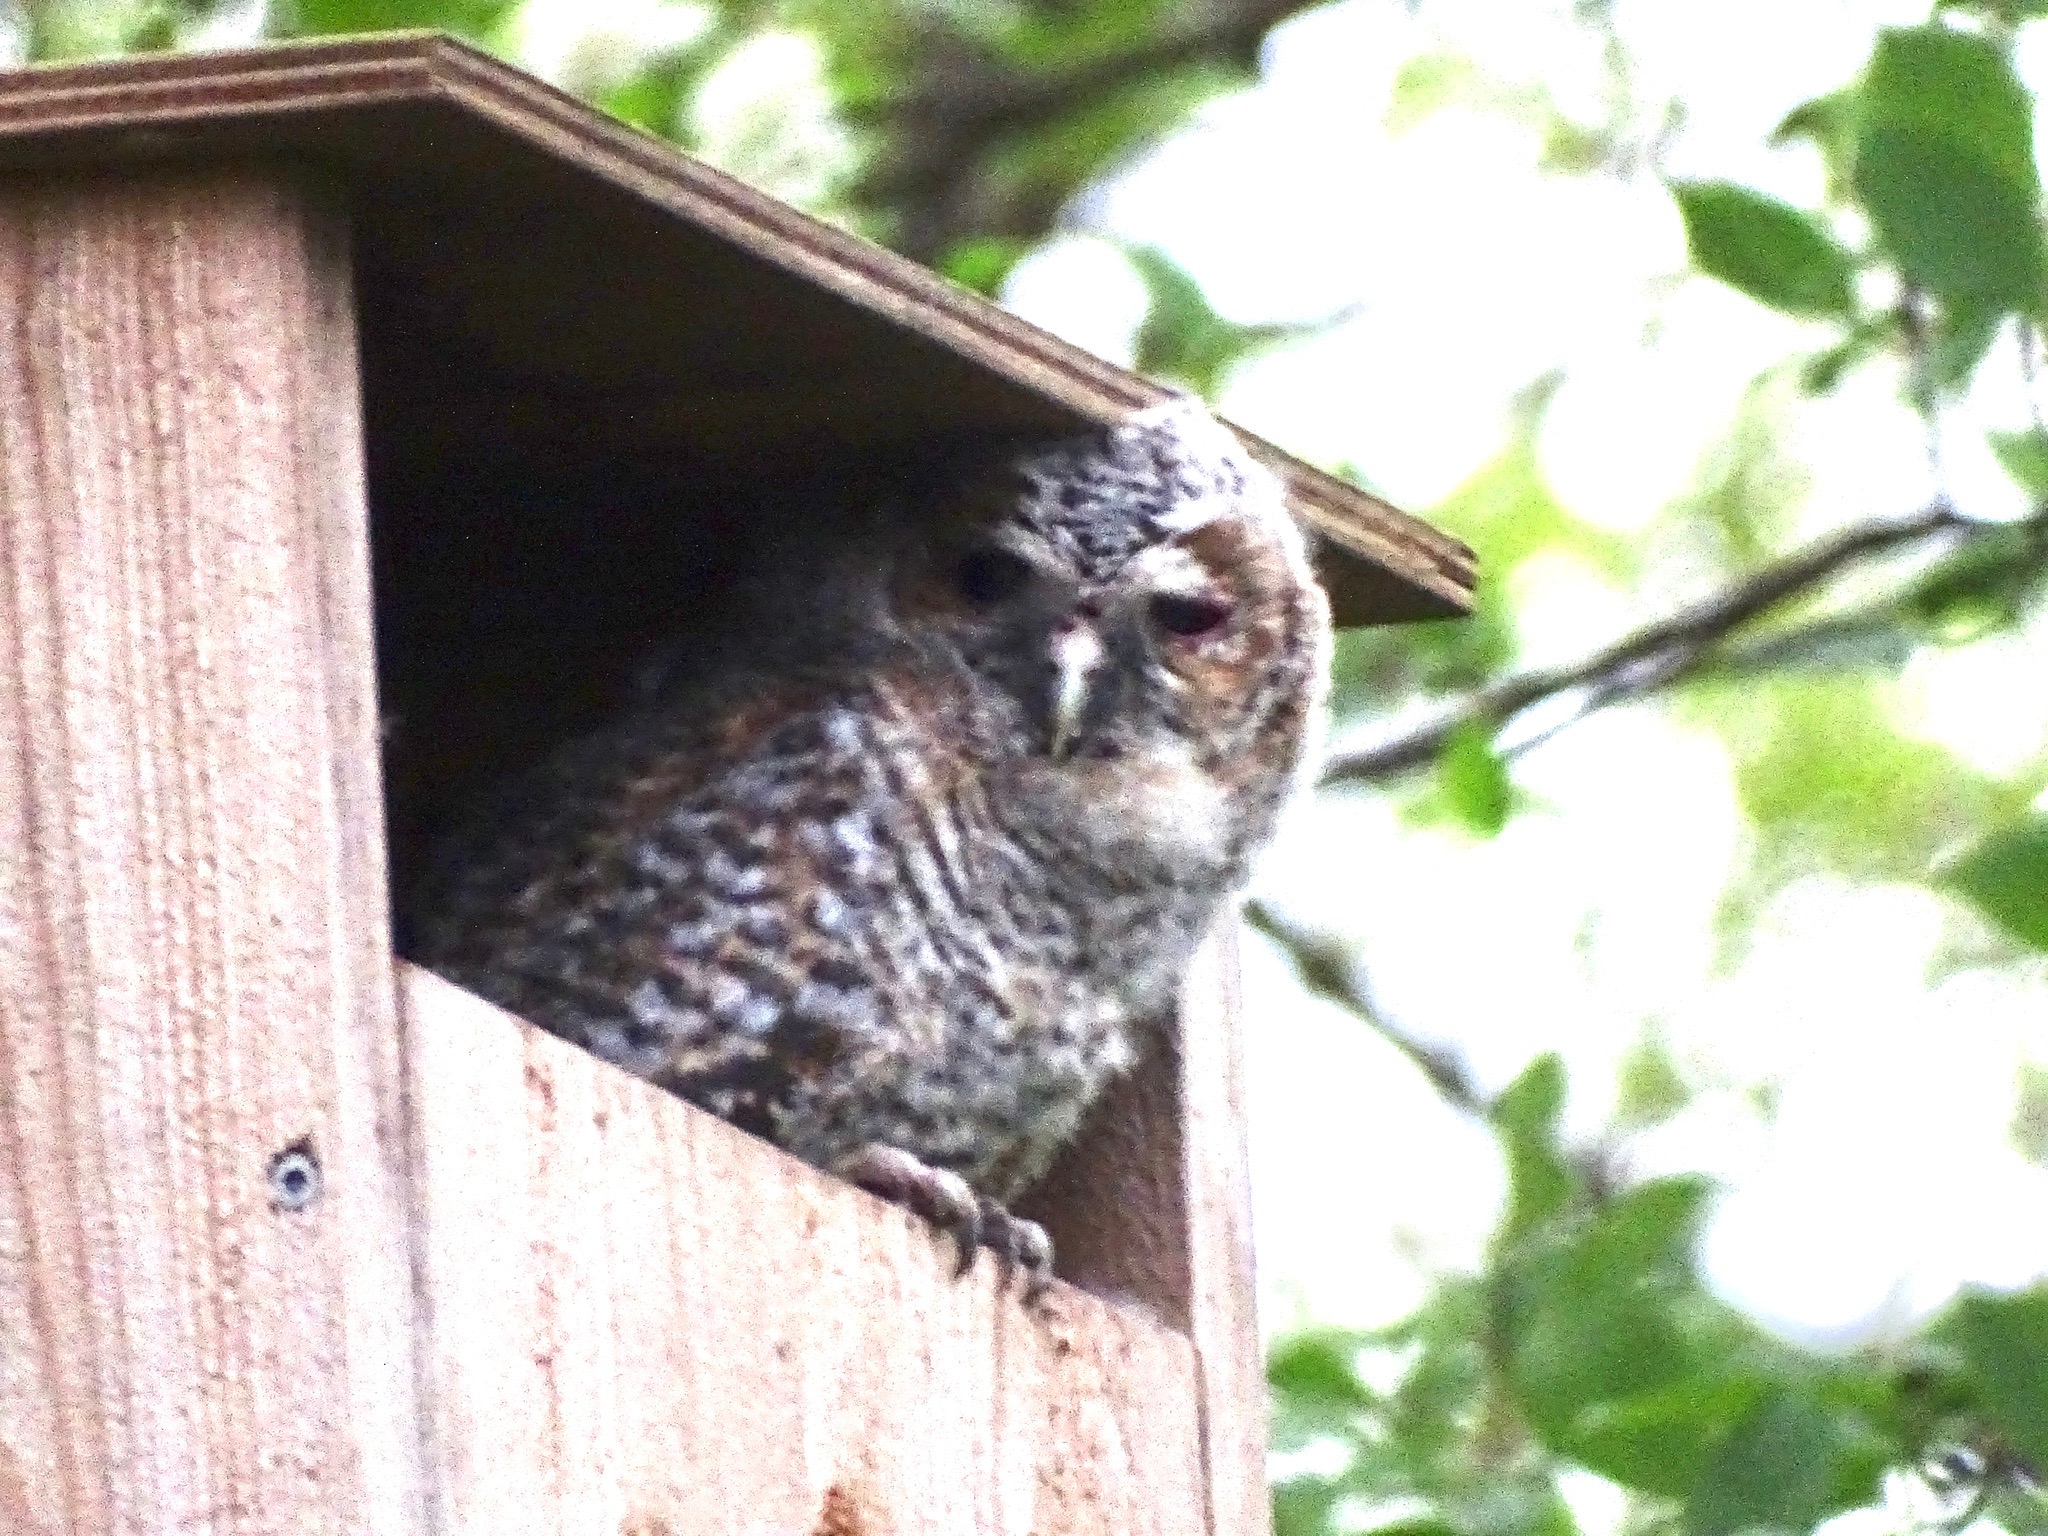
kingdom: Animalia
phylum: Chordata
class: Aves
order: Strigiformes
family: Strigidae
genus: Strix
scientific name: Strix aluco
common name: Natugle
